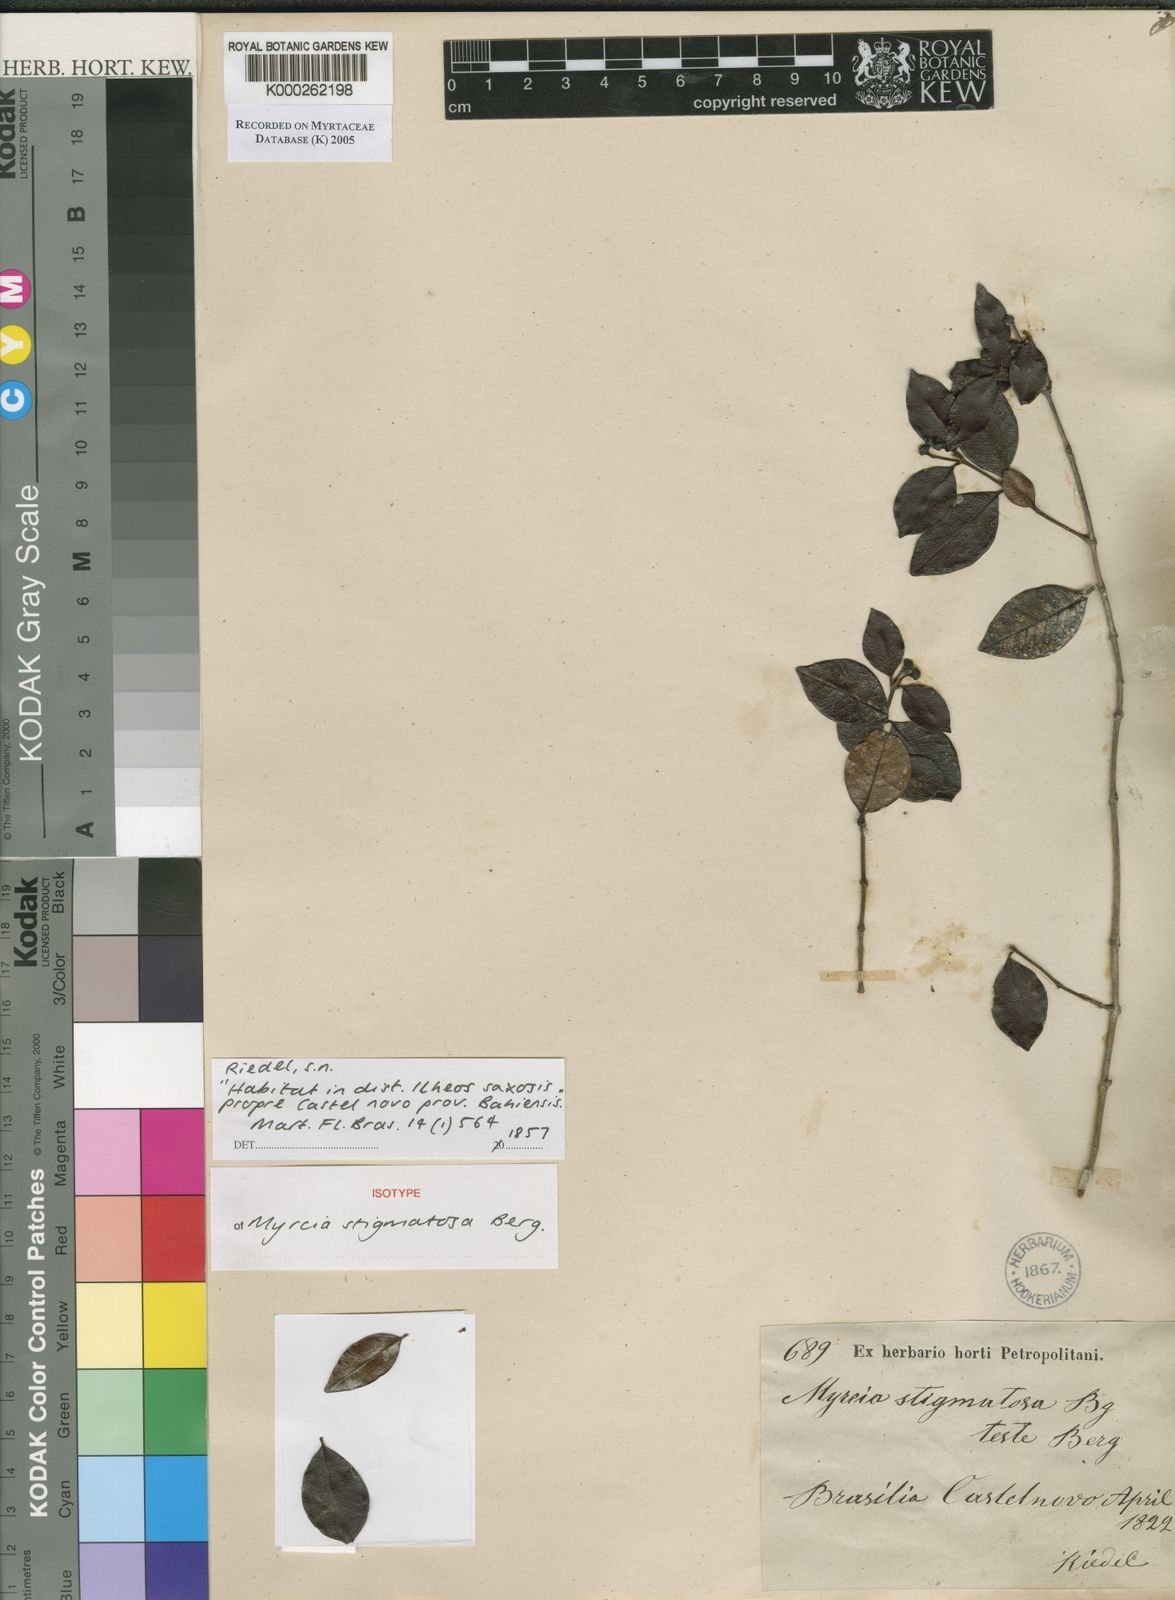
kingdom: Plantae
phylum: Tracheophyta
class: Magnoliopsida
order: Myrtales
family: Myrtaceae
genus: Myrcia
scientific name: Myrcia stigmatosa
